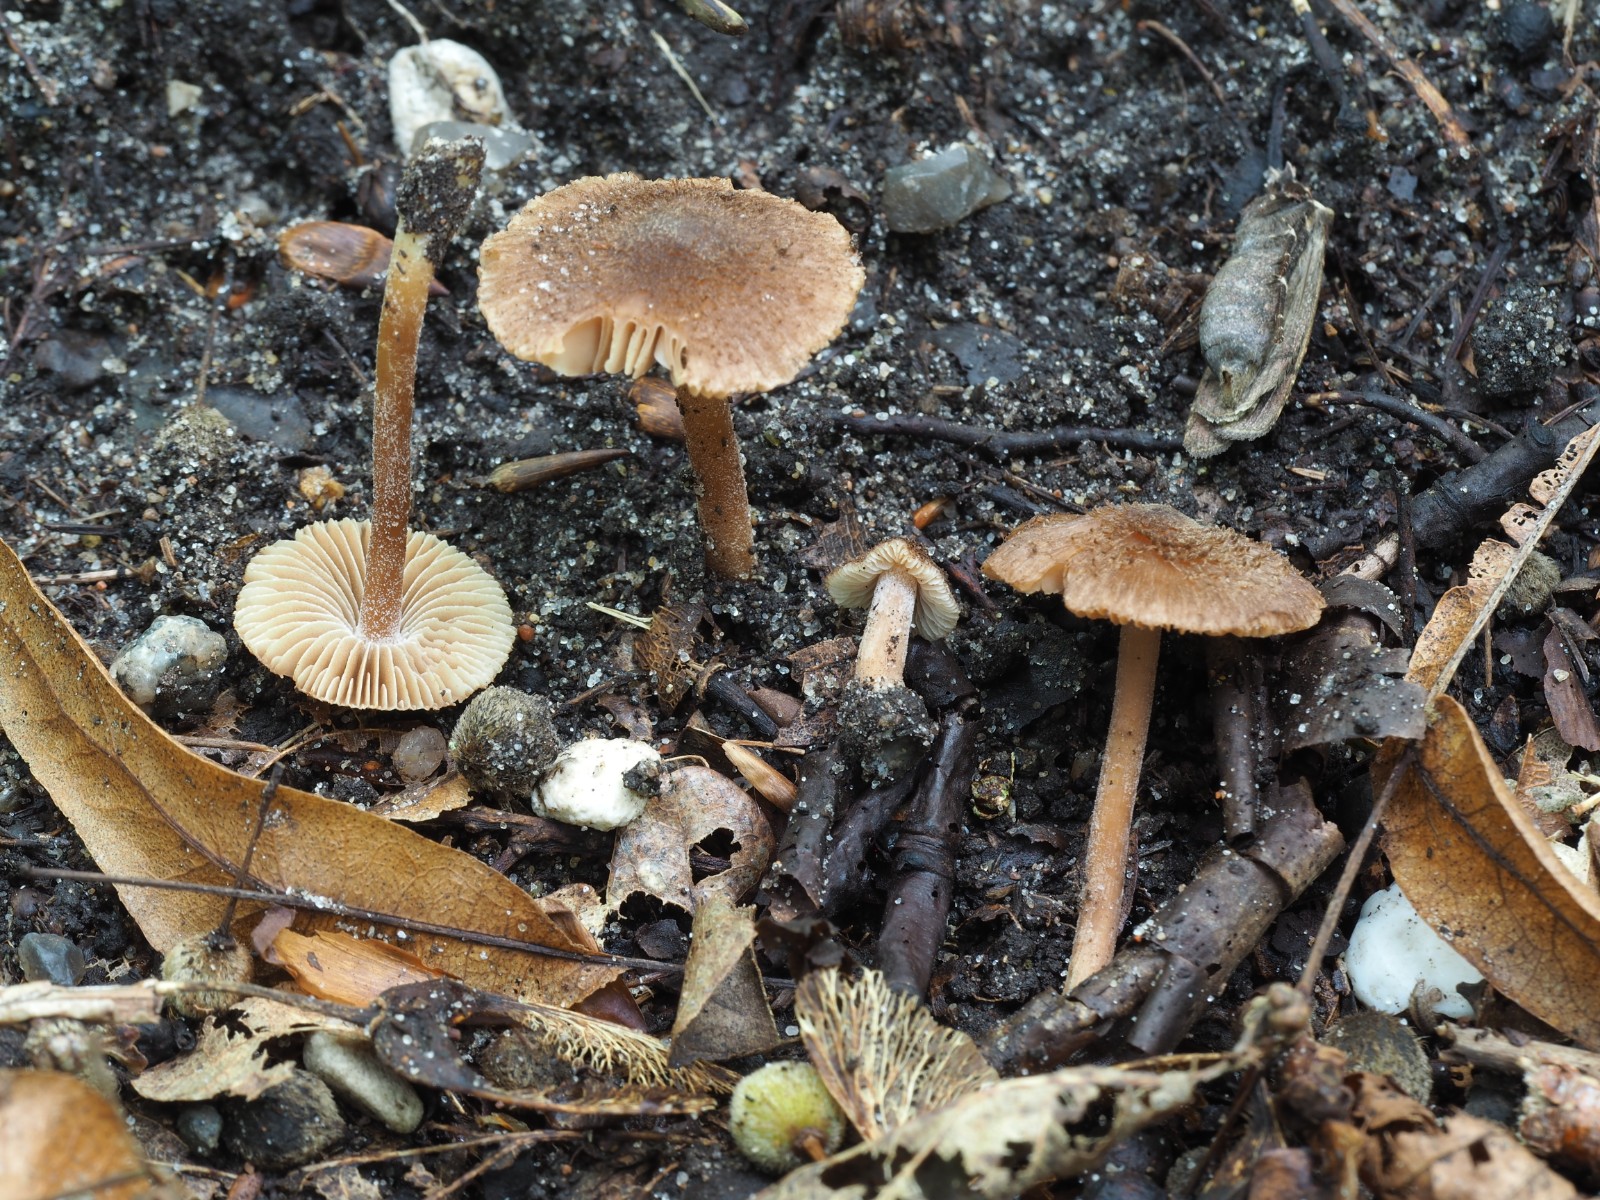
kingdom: Fungi
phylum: Basidiomycota
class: Agaricomycetes
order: Agaricales
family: Inocybaceae
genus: Inocybe
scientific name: Inocybe calospora
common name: pigsporet trævlhat
